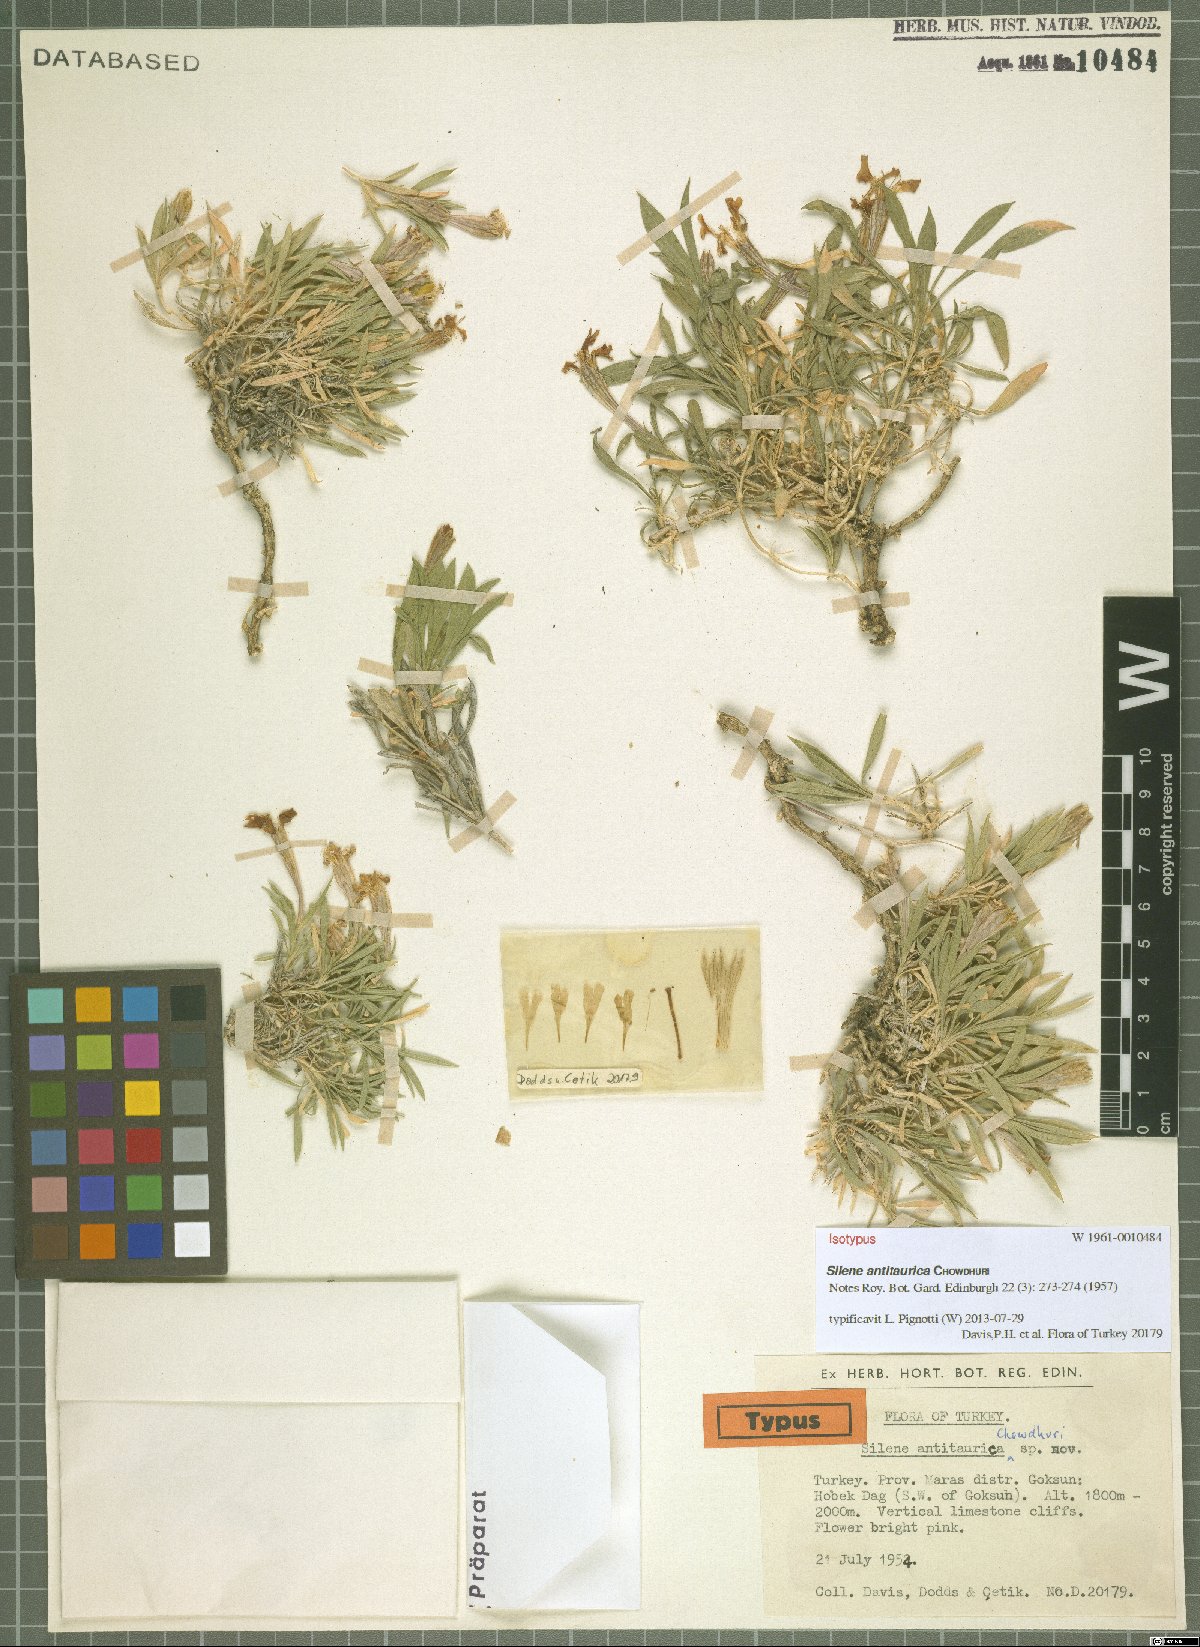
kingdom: Plantae
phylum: Tracheophyta
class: Magnoliopsida
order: Caryophyllales
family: Caryophyllaceae
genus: Silene
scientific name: Silene brevicaulis
